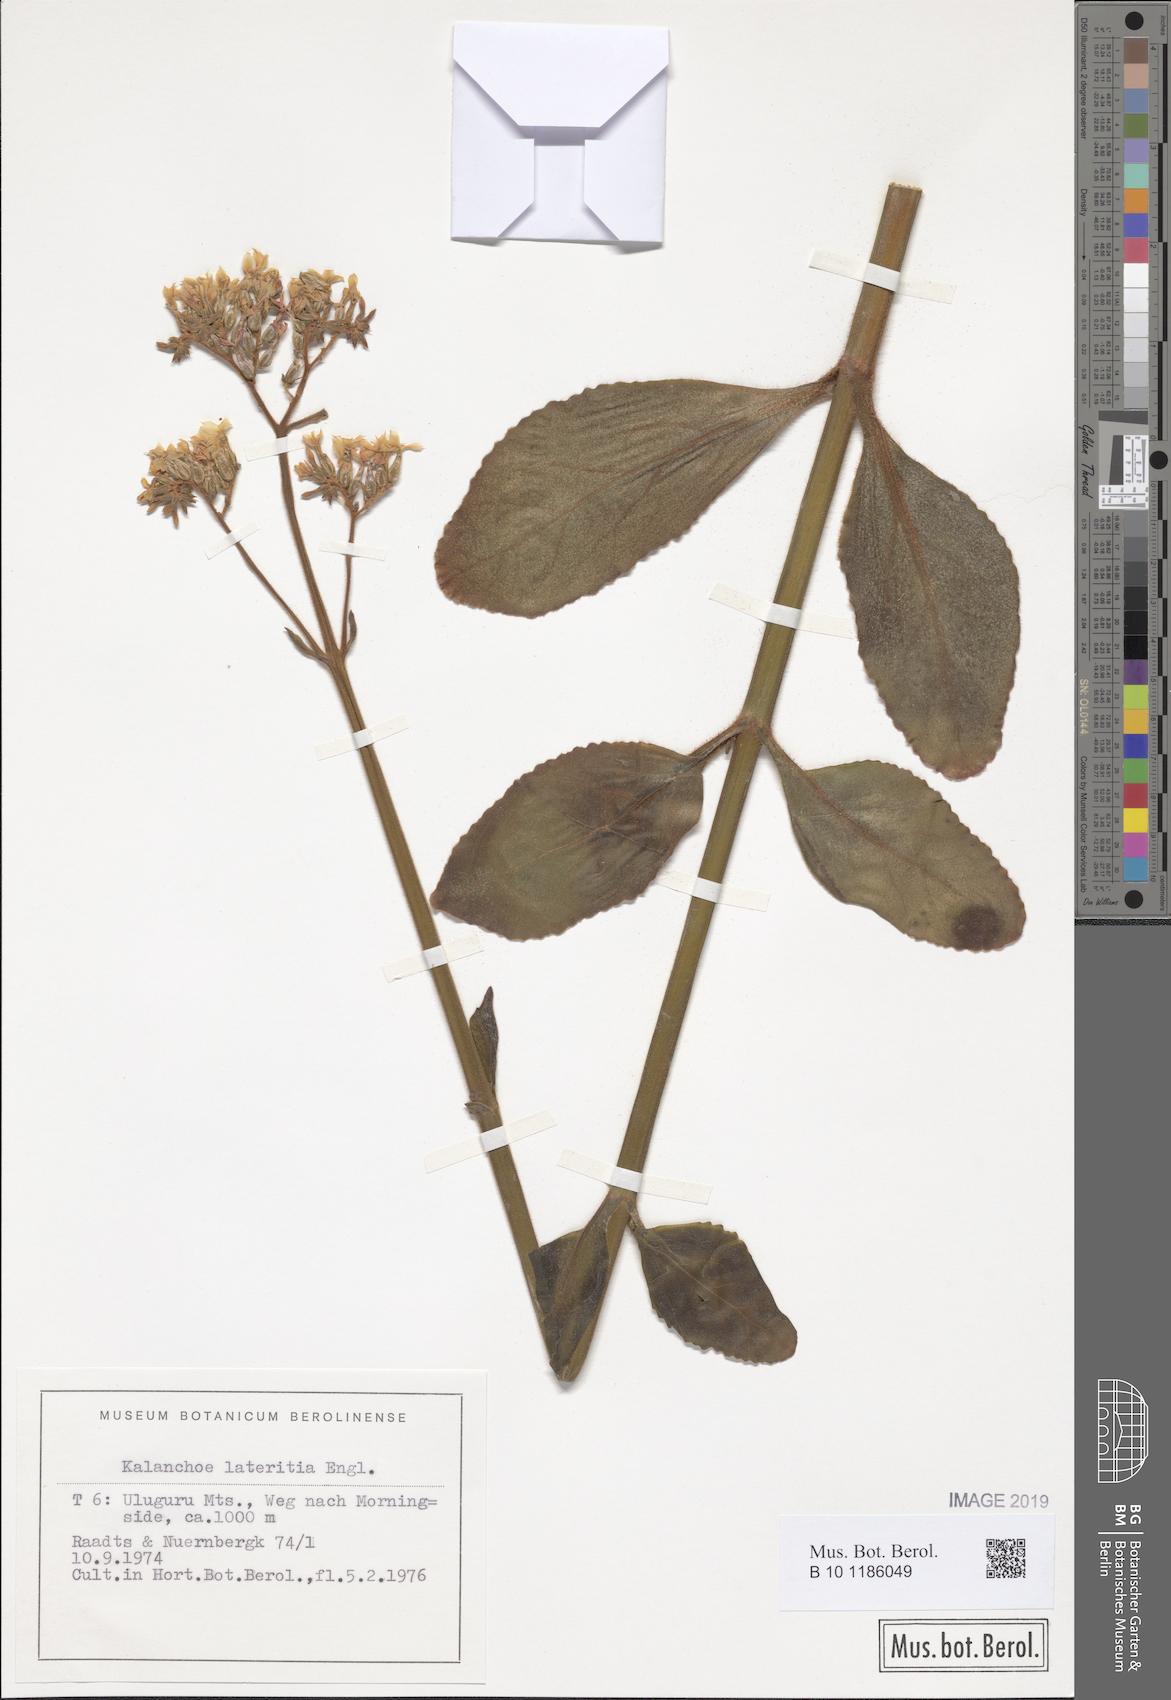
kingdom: Plantae
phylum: Tracheophyta
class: Magnoliopsida
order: Saxifragales
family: Crassulaceae
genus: Kalanchoe
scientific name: Kalanchoe lateritia
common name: Kalanchoe
